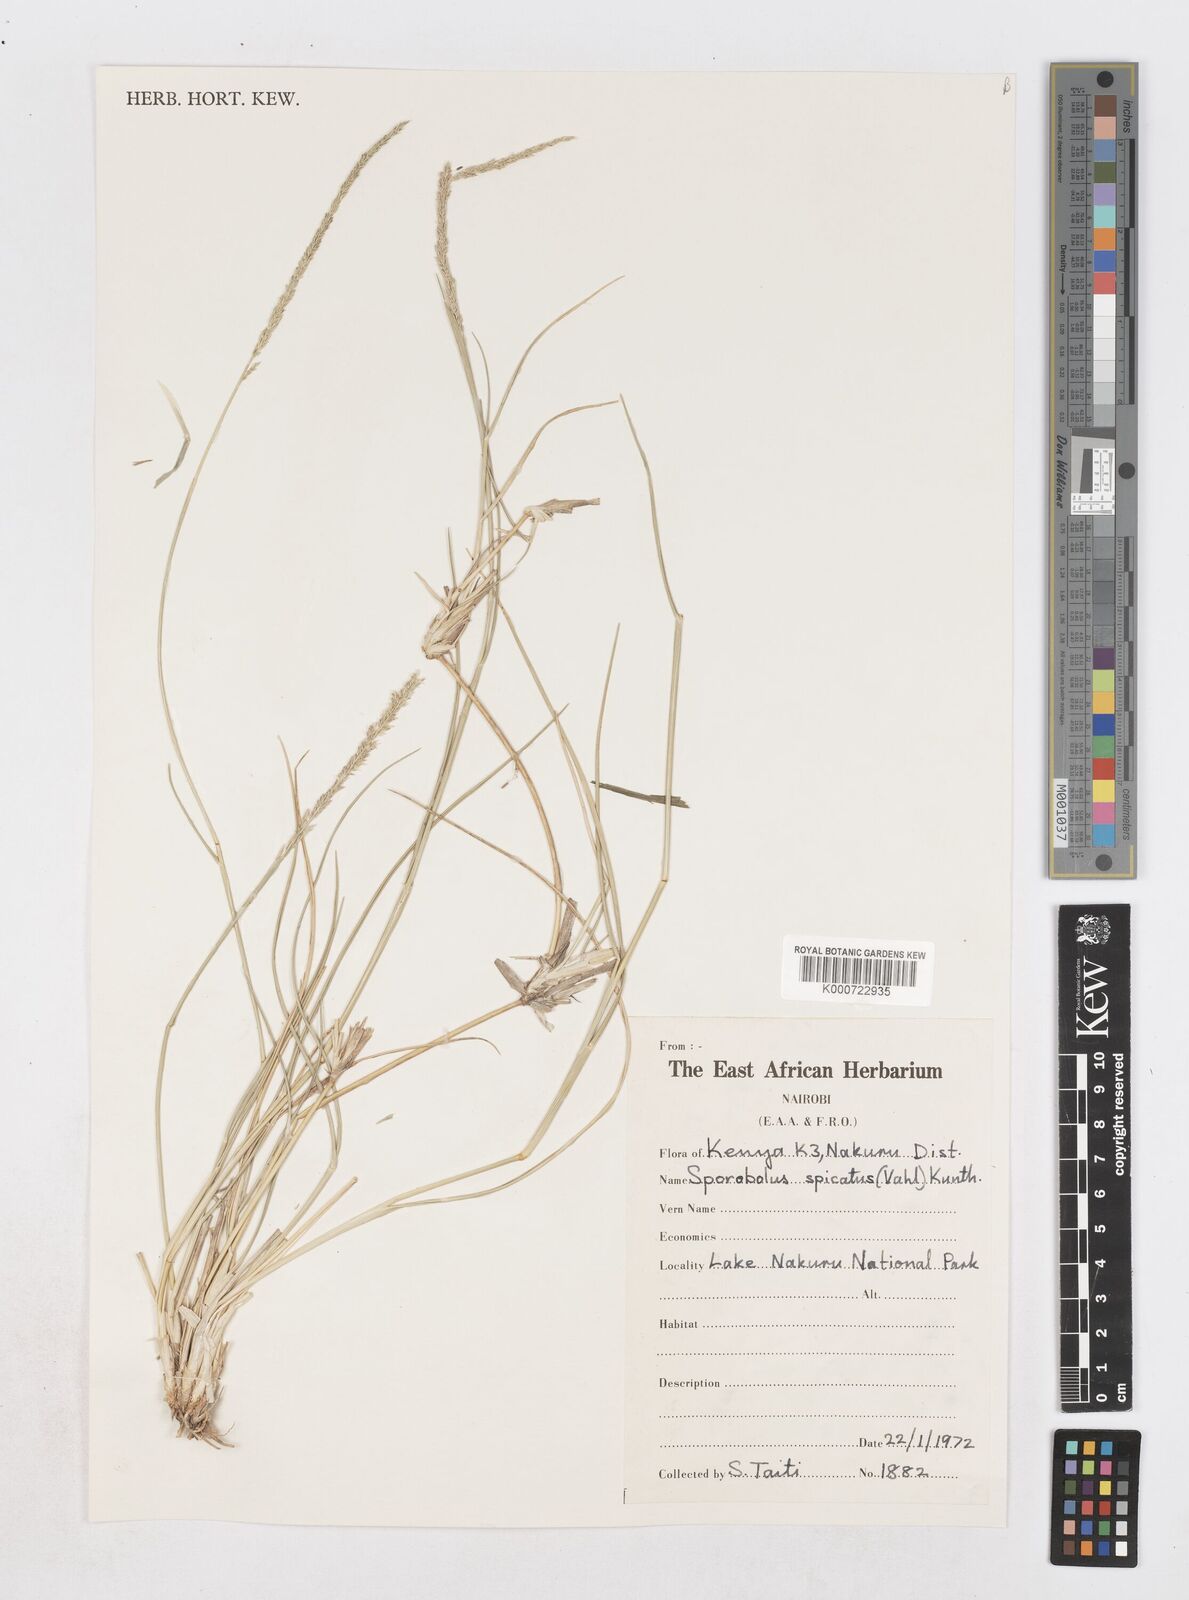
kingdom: Plantae
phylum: Tracheophyta
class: Liliopsida
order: Poales
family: Poaceae
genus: Sporobolus
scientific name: Sporobolus spicatus
